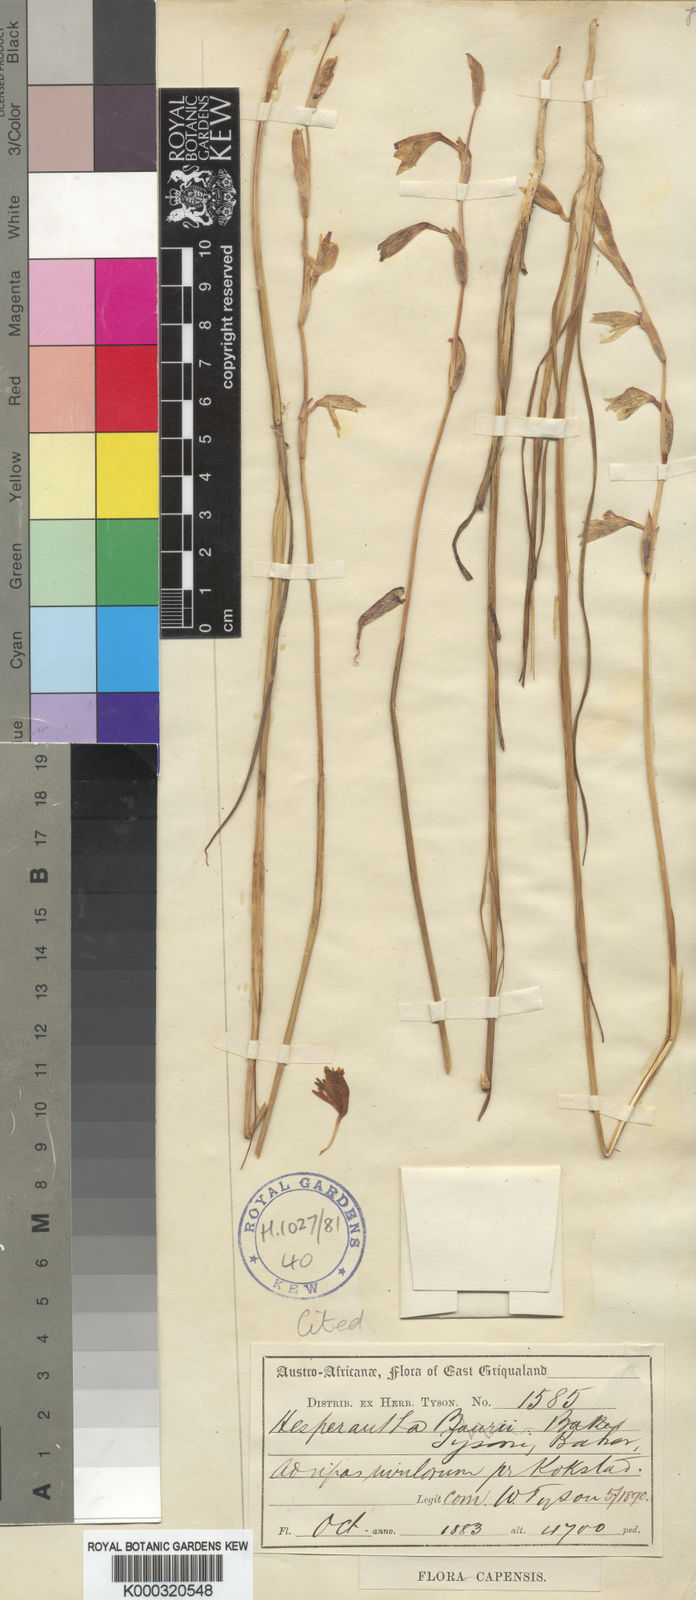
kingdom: Plantae
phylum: Tracheophyta
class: Liliopsida
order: Asparagales
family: Iridaceae
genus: Hesperantha
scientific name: Hesperantha radiata
